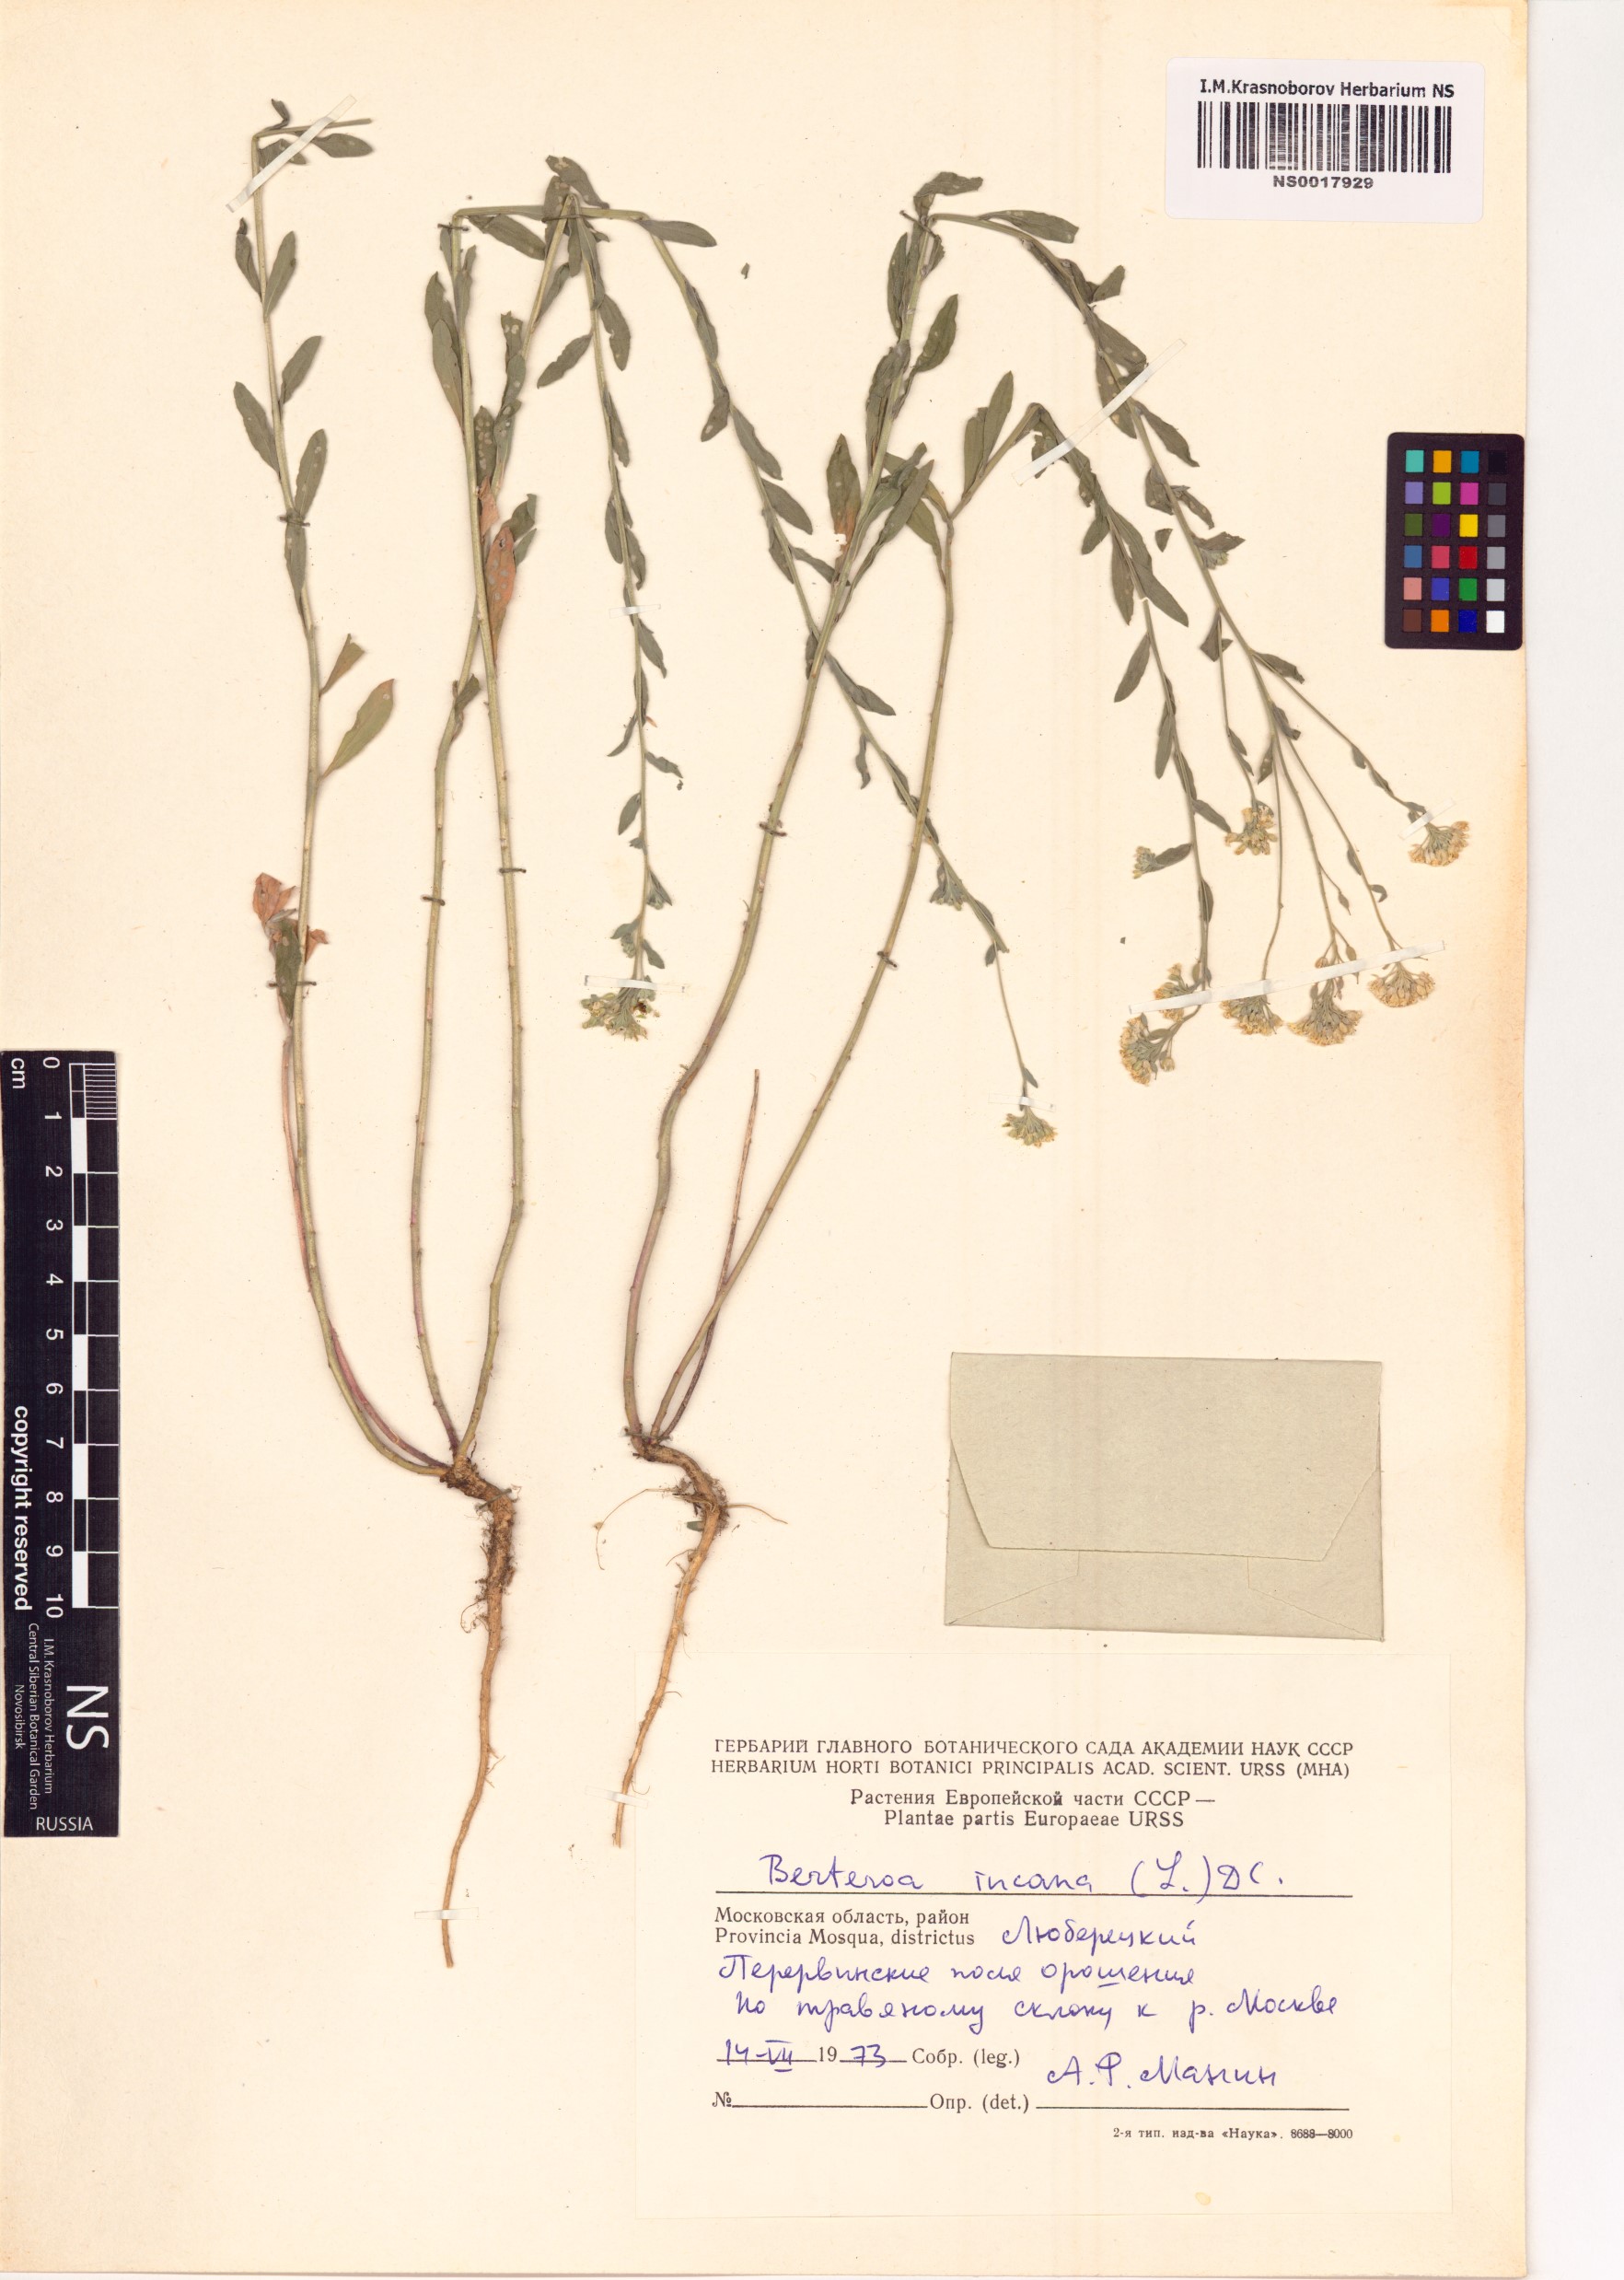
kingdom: Plantae
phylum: Tracheophyta
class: Magnoliopsida
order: Brassicales
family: Brassicaceae
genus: Berteroa
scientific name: Berteroa incana
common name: Hoary alison
